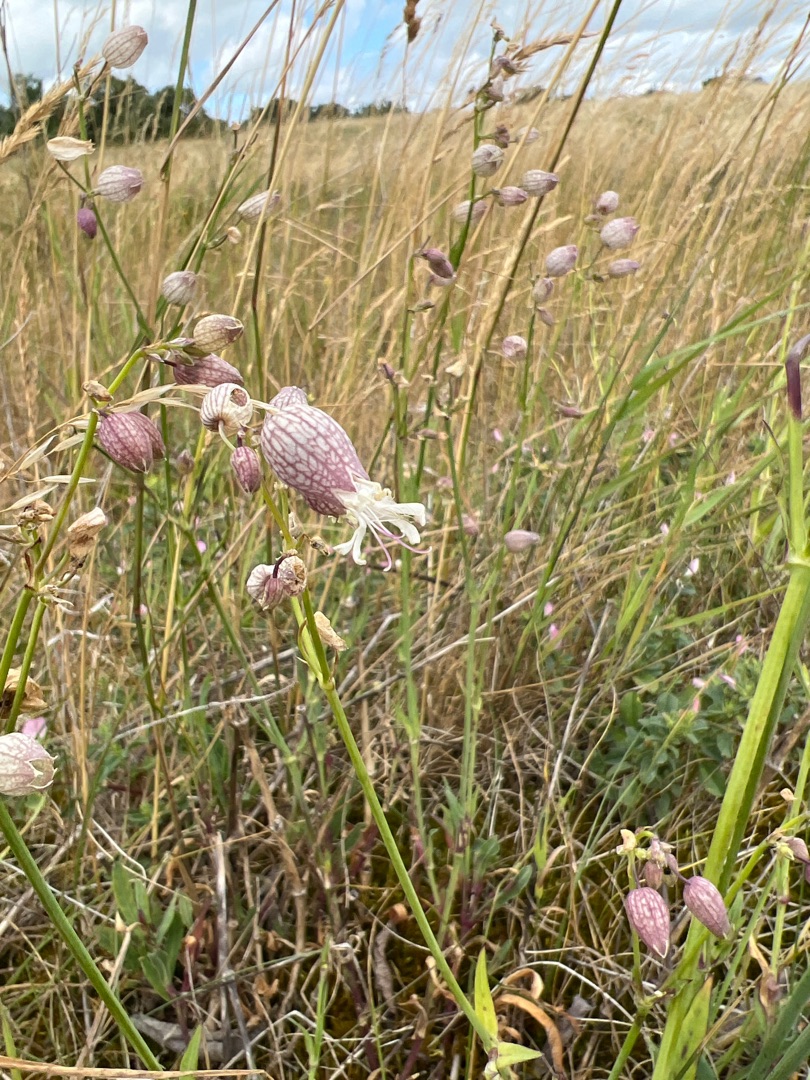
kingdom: Plantae
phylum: Tracheophyta
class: Magnoliopsida
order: Caryophyllales
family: Caryophyllaceae
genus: Silene
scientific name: Silene vulgaris
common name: Blæresmælde
